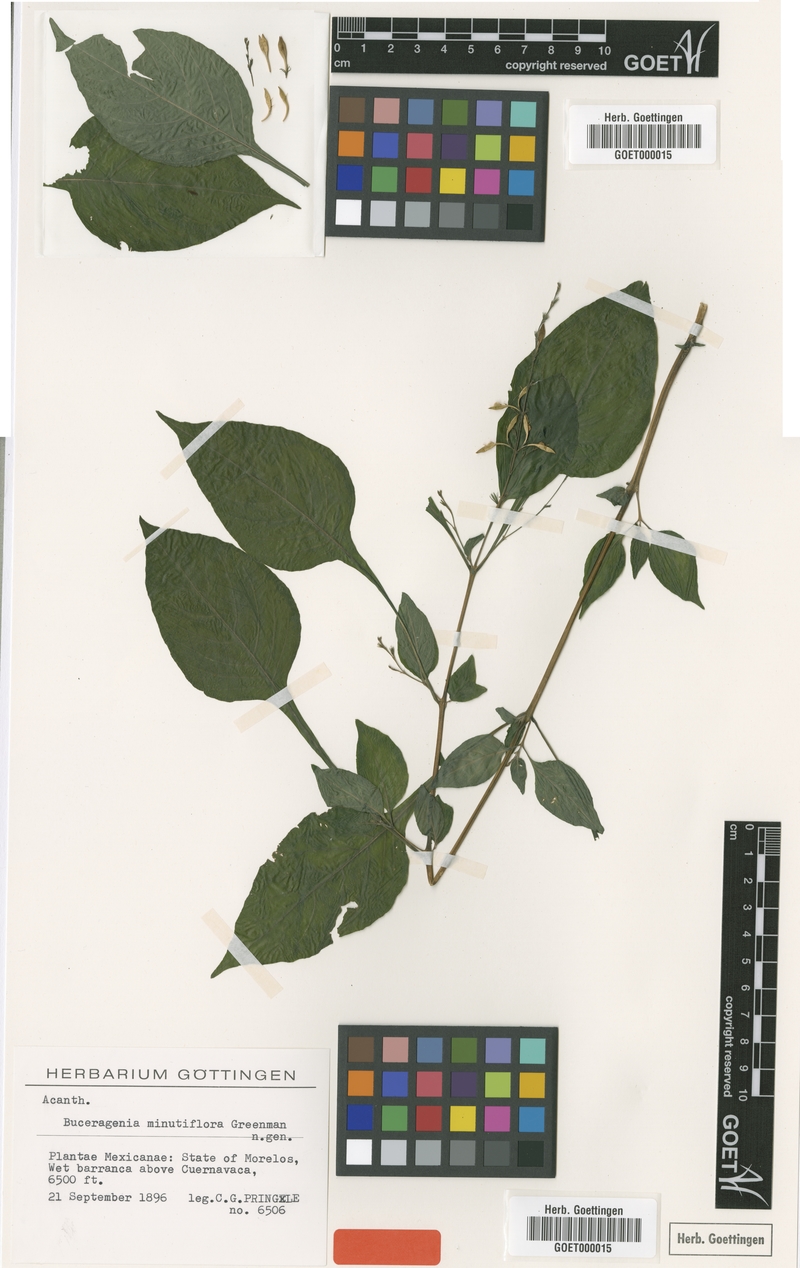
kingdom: Plantae
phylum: Tracheophyta
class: Magnoliopsida
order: Lamiales
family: Acanthaceae
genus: Pseuderanthemum
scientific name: Pseuderanthemum Buceragenia minutiflora
